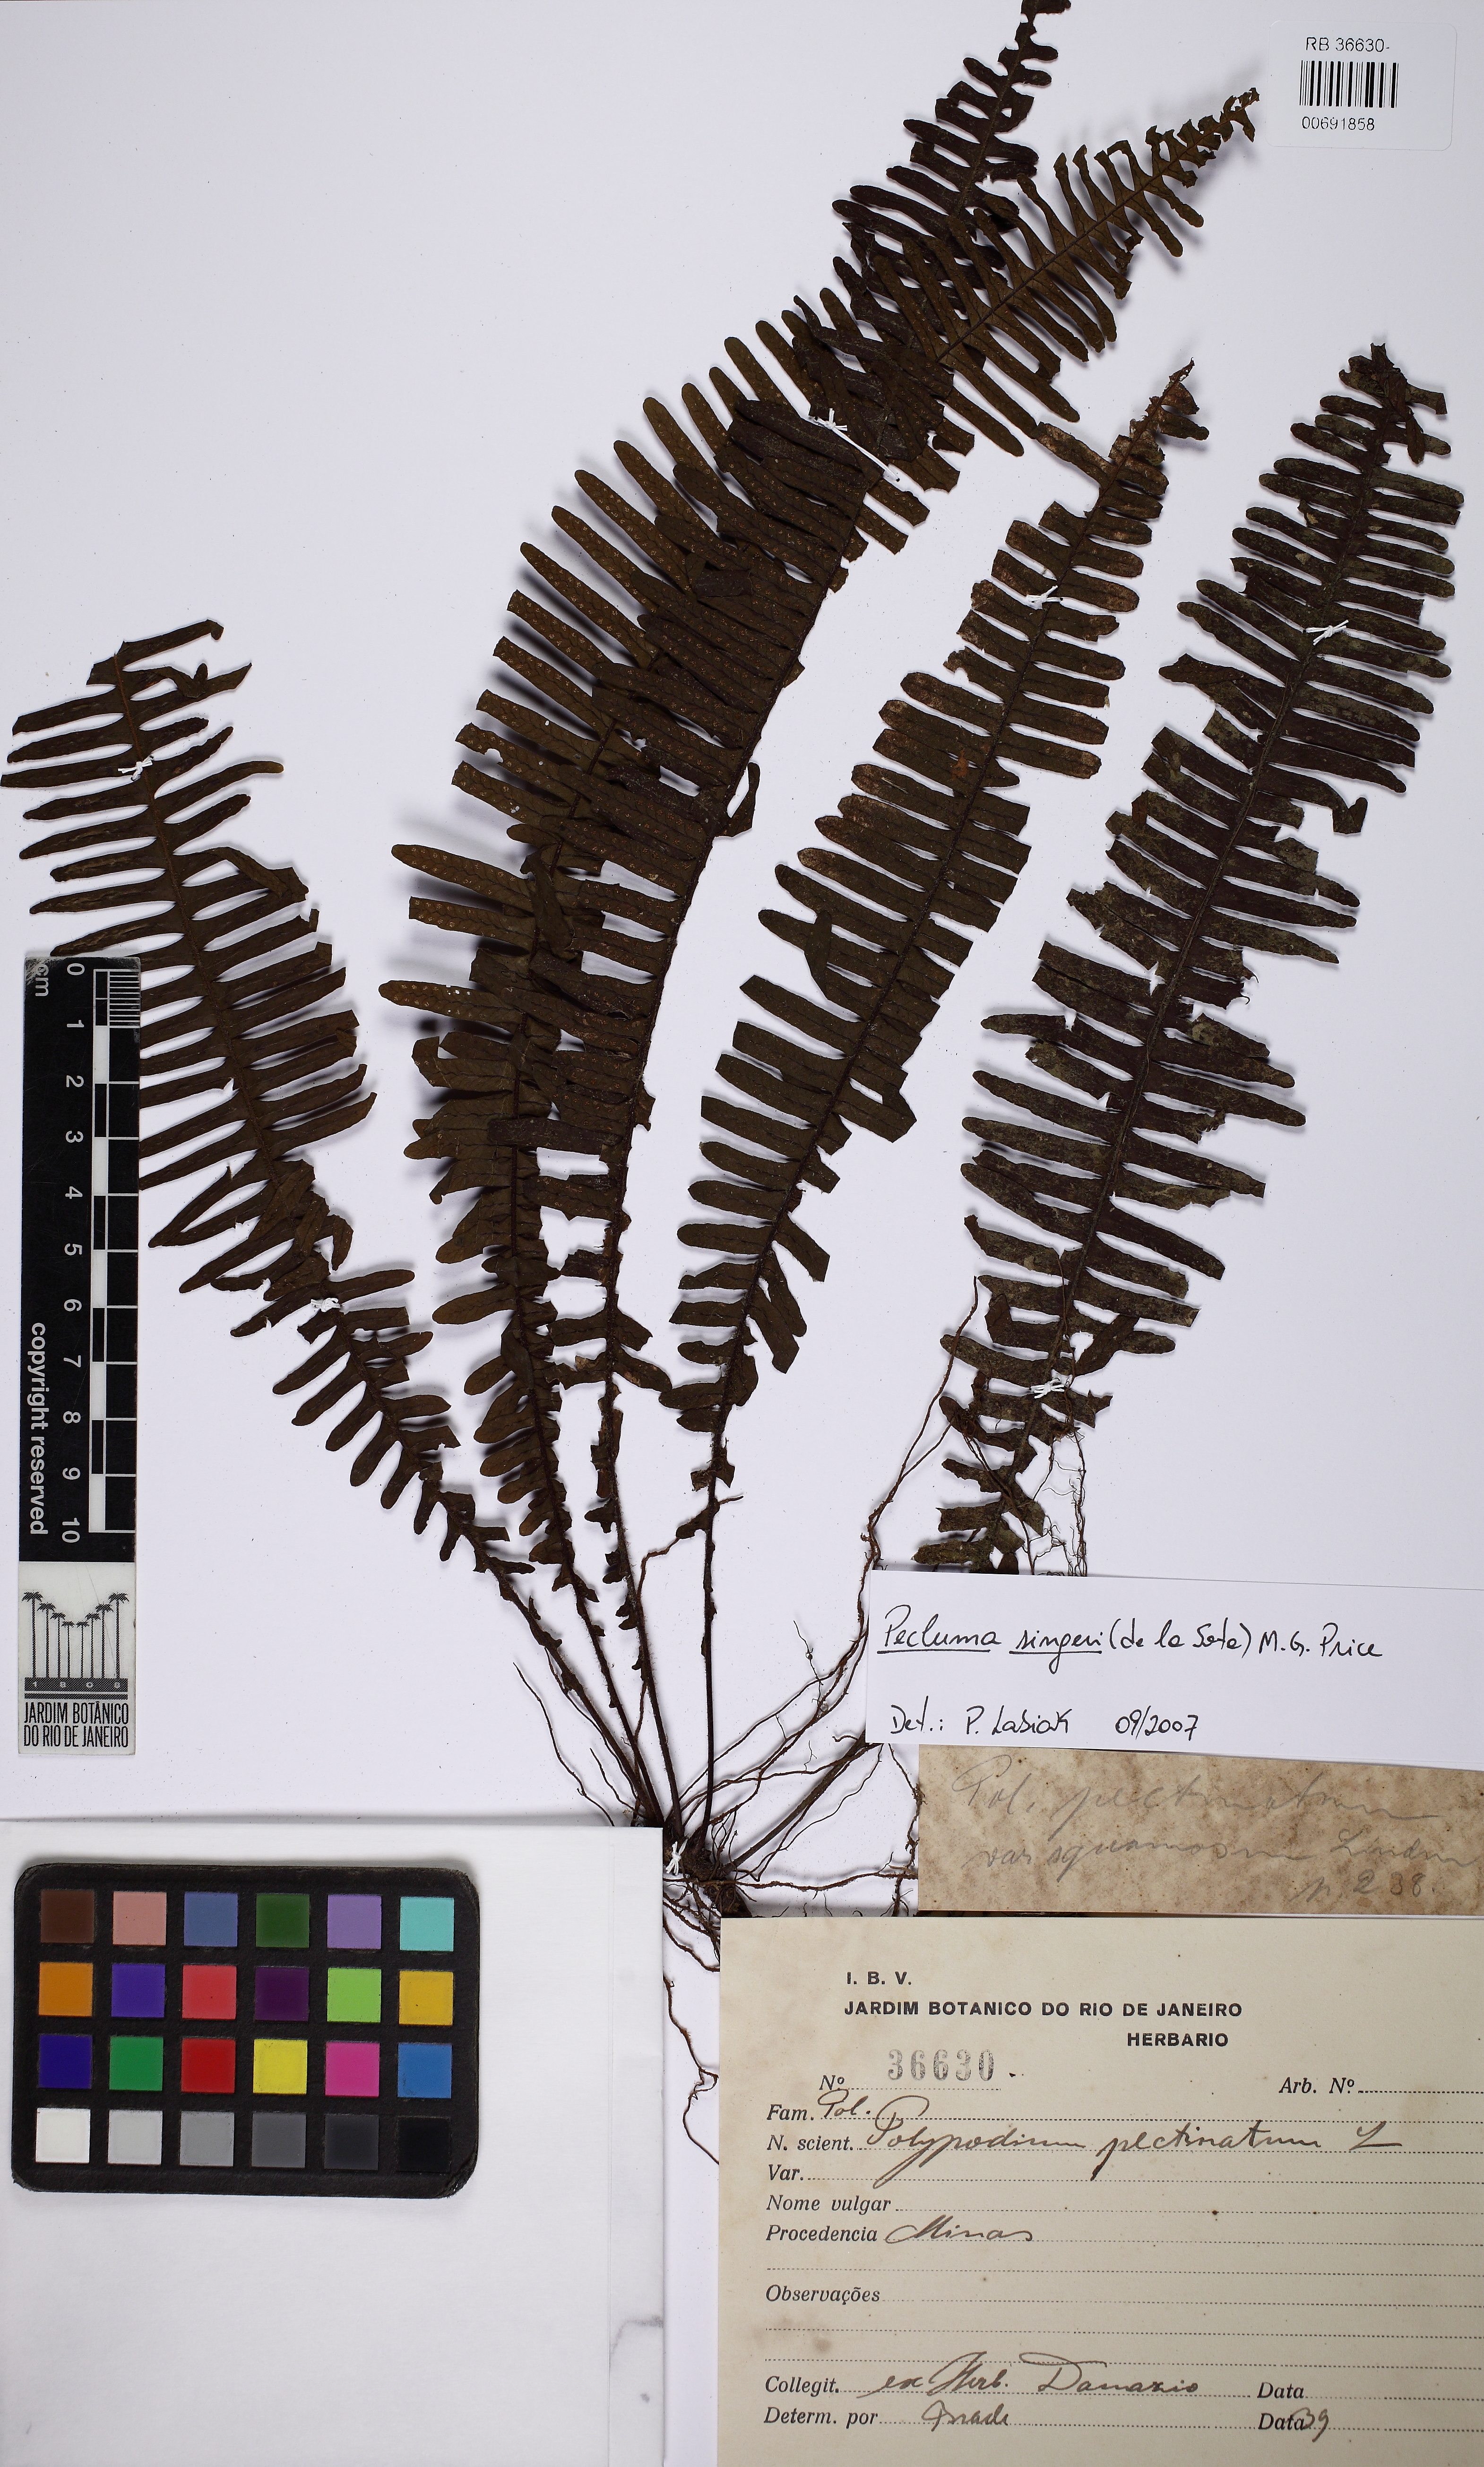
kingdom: Plantae
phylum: Tracheophyta
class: Polypodiopsida
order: Polypodiales
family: Polypodiaceae
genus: Pecluma
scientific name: Pecluma singeri
